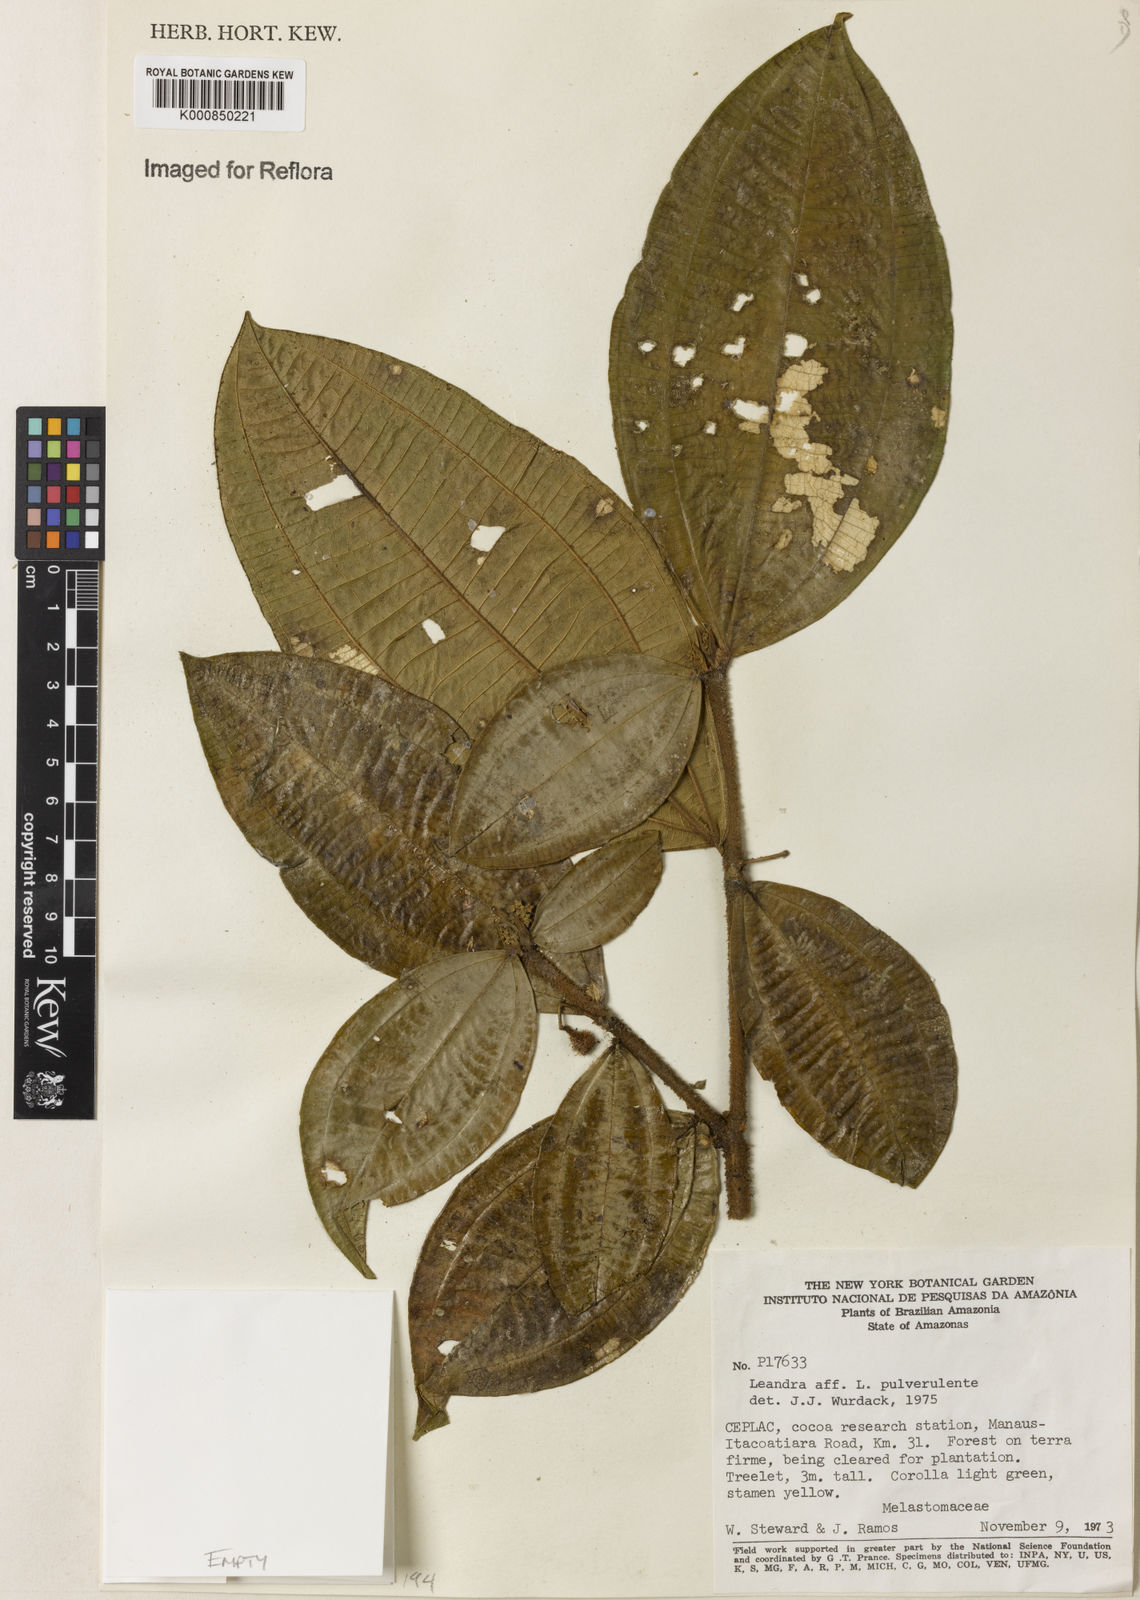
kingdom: Plantae
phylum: Tracheophyta
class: Magnoliopsida
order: Myrtales
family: Melastomataceae
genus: Miconia
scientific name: Miconia aliquantula
